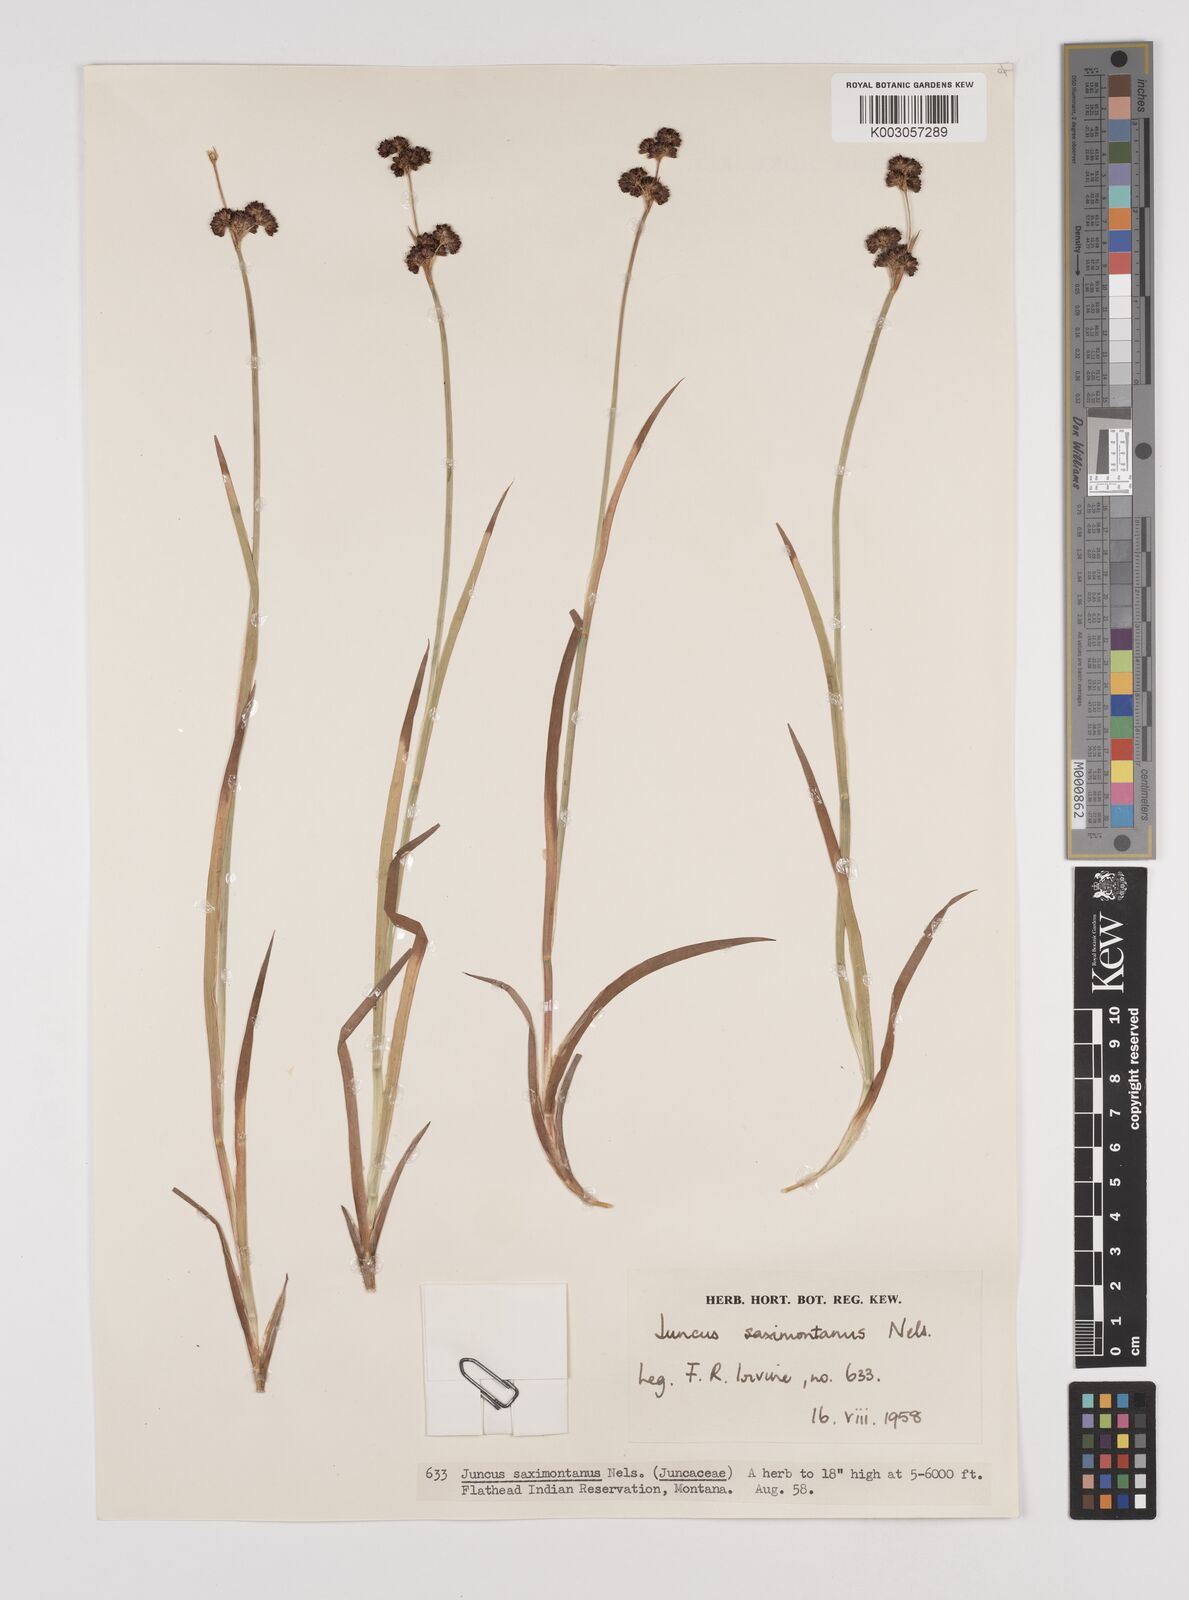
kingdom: Plantae
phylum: Tracheophyta
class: Liliopsida
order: Poales
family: Juncaceae
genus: Juncus
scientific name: Juncus saximontanus
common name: Rocky mountain rush
